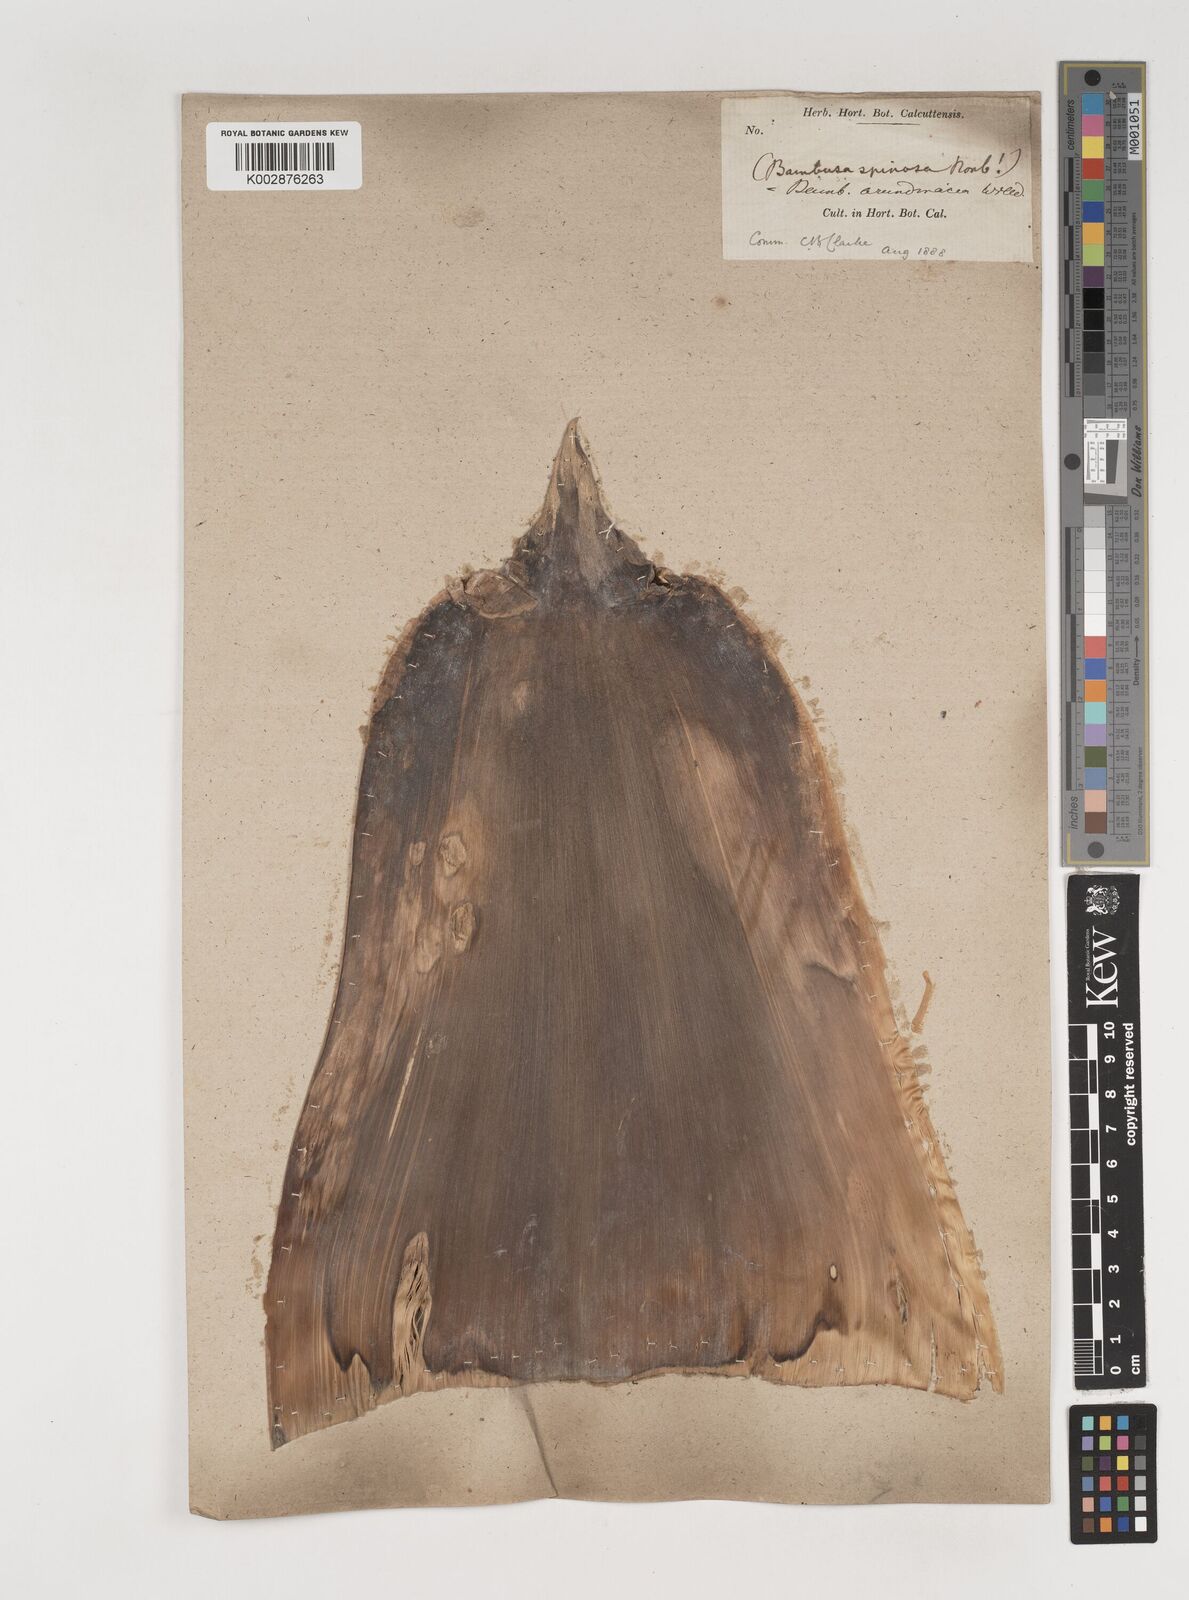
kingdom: Plantae
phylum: Tracheophyta
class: Liliopsida
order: Poales
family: Poaceae
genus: Bambusa
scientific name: Bambusa bambos
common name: Indian thorny bamboo
